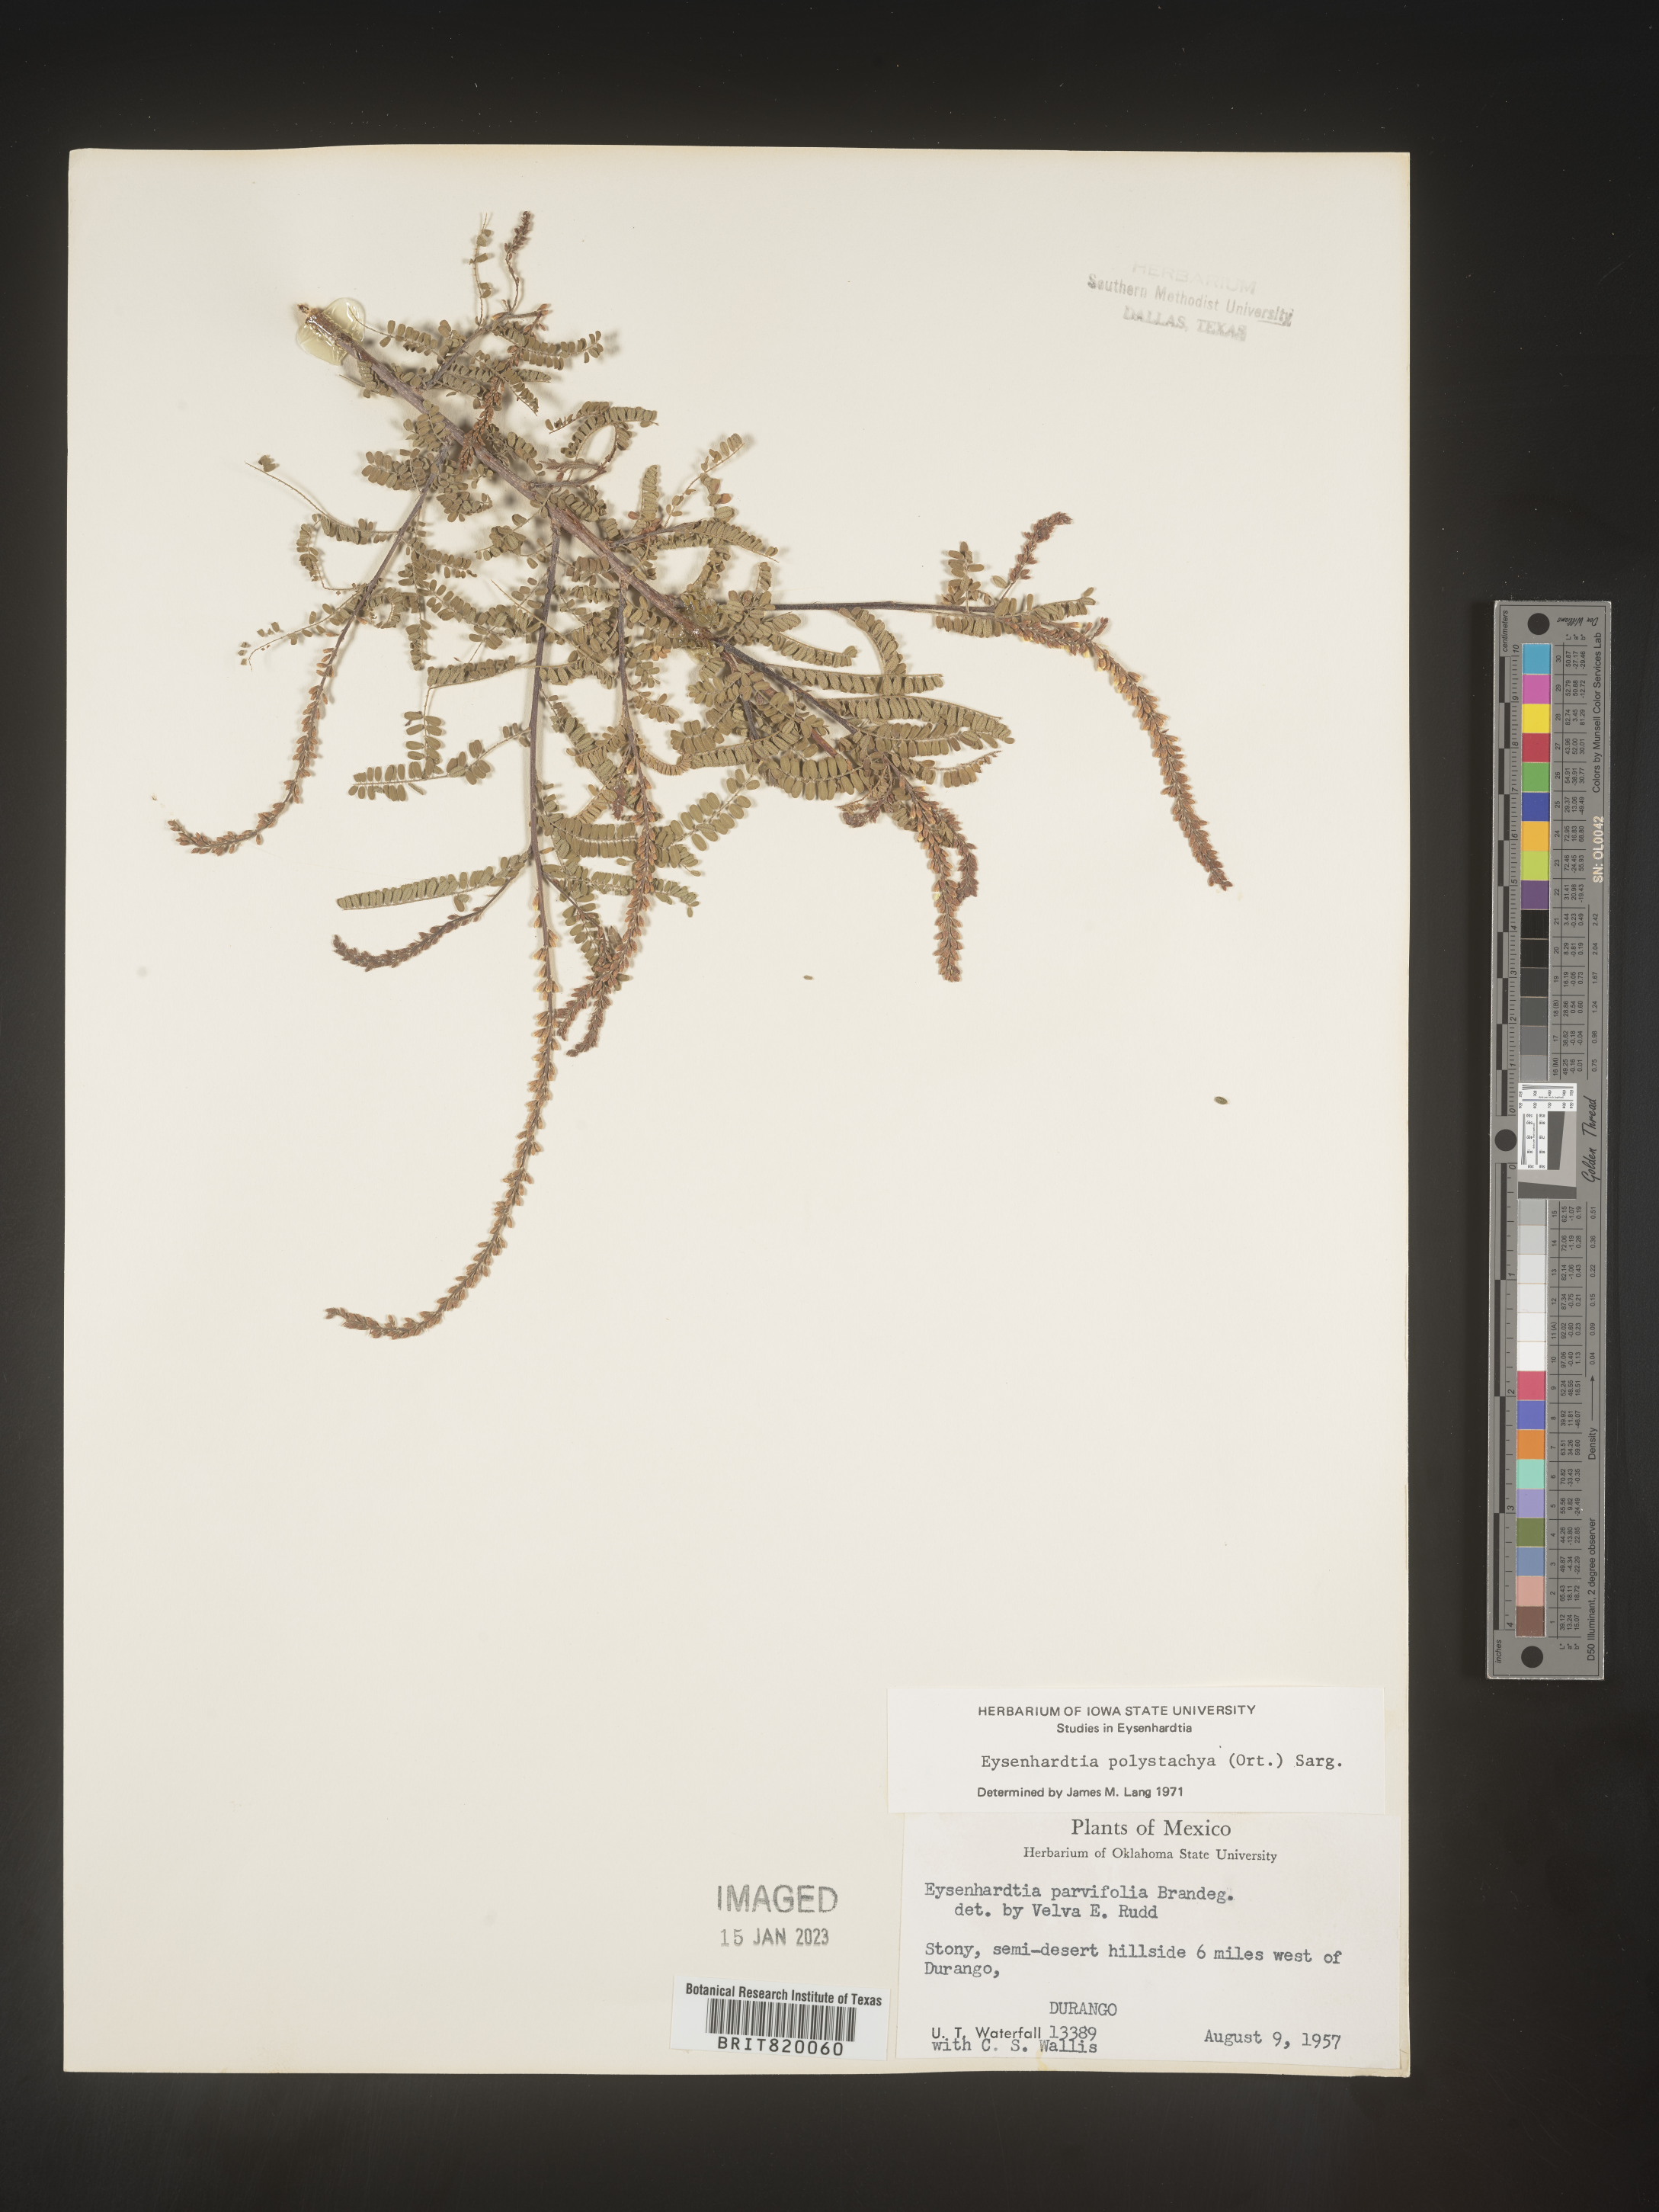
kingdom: Plantae
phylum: Tracheophyta
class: Magnoliopsida
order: Fabales
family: Fabaceae
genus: Eysenhardtia
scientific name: Eysenhardtia
